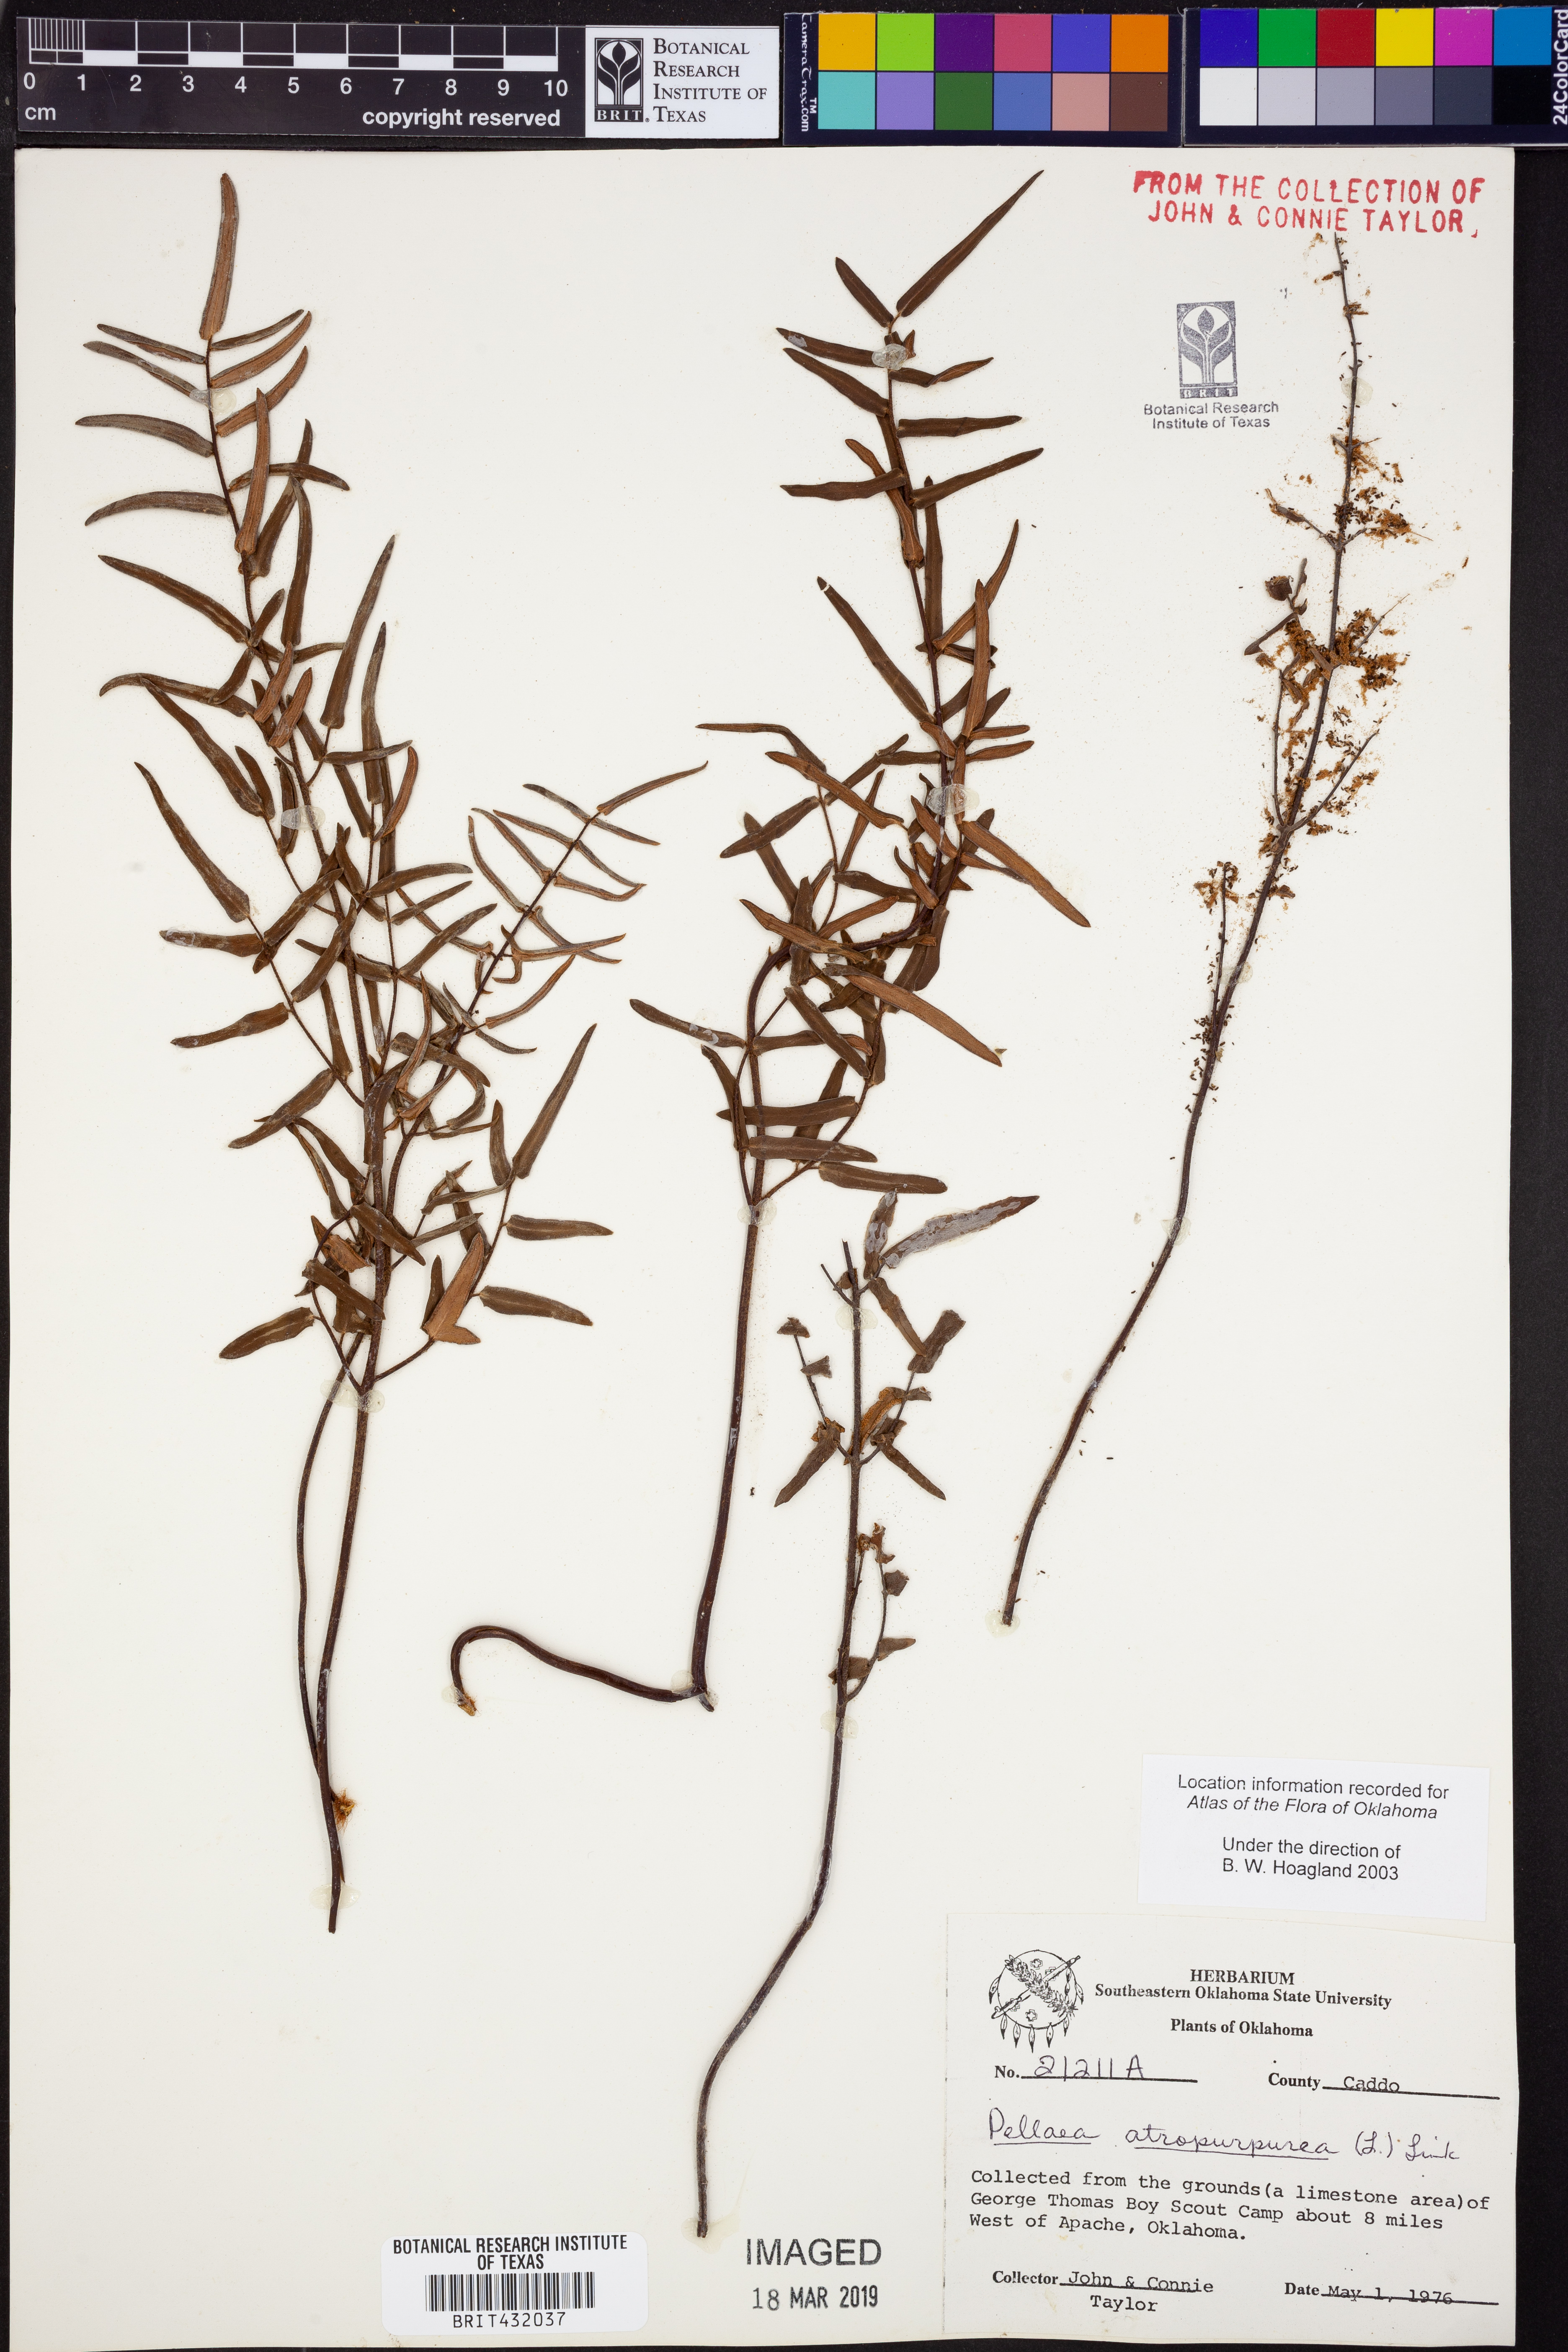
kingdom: Plantae
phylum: Tracheophyta
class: Polypodiopsida
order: Polypodiales
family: Pteridaceae
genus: Pellaea
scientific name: Pellaea atropurpurea
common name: Hairy cliffbrake
